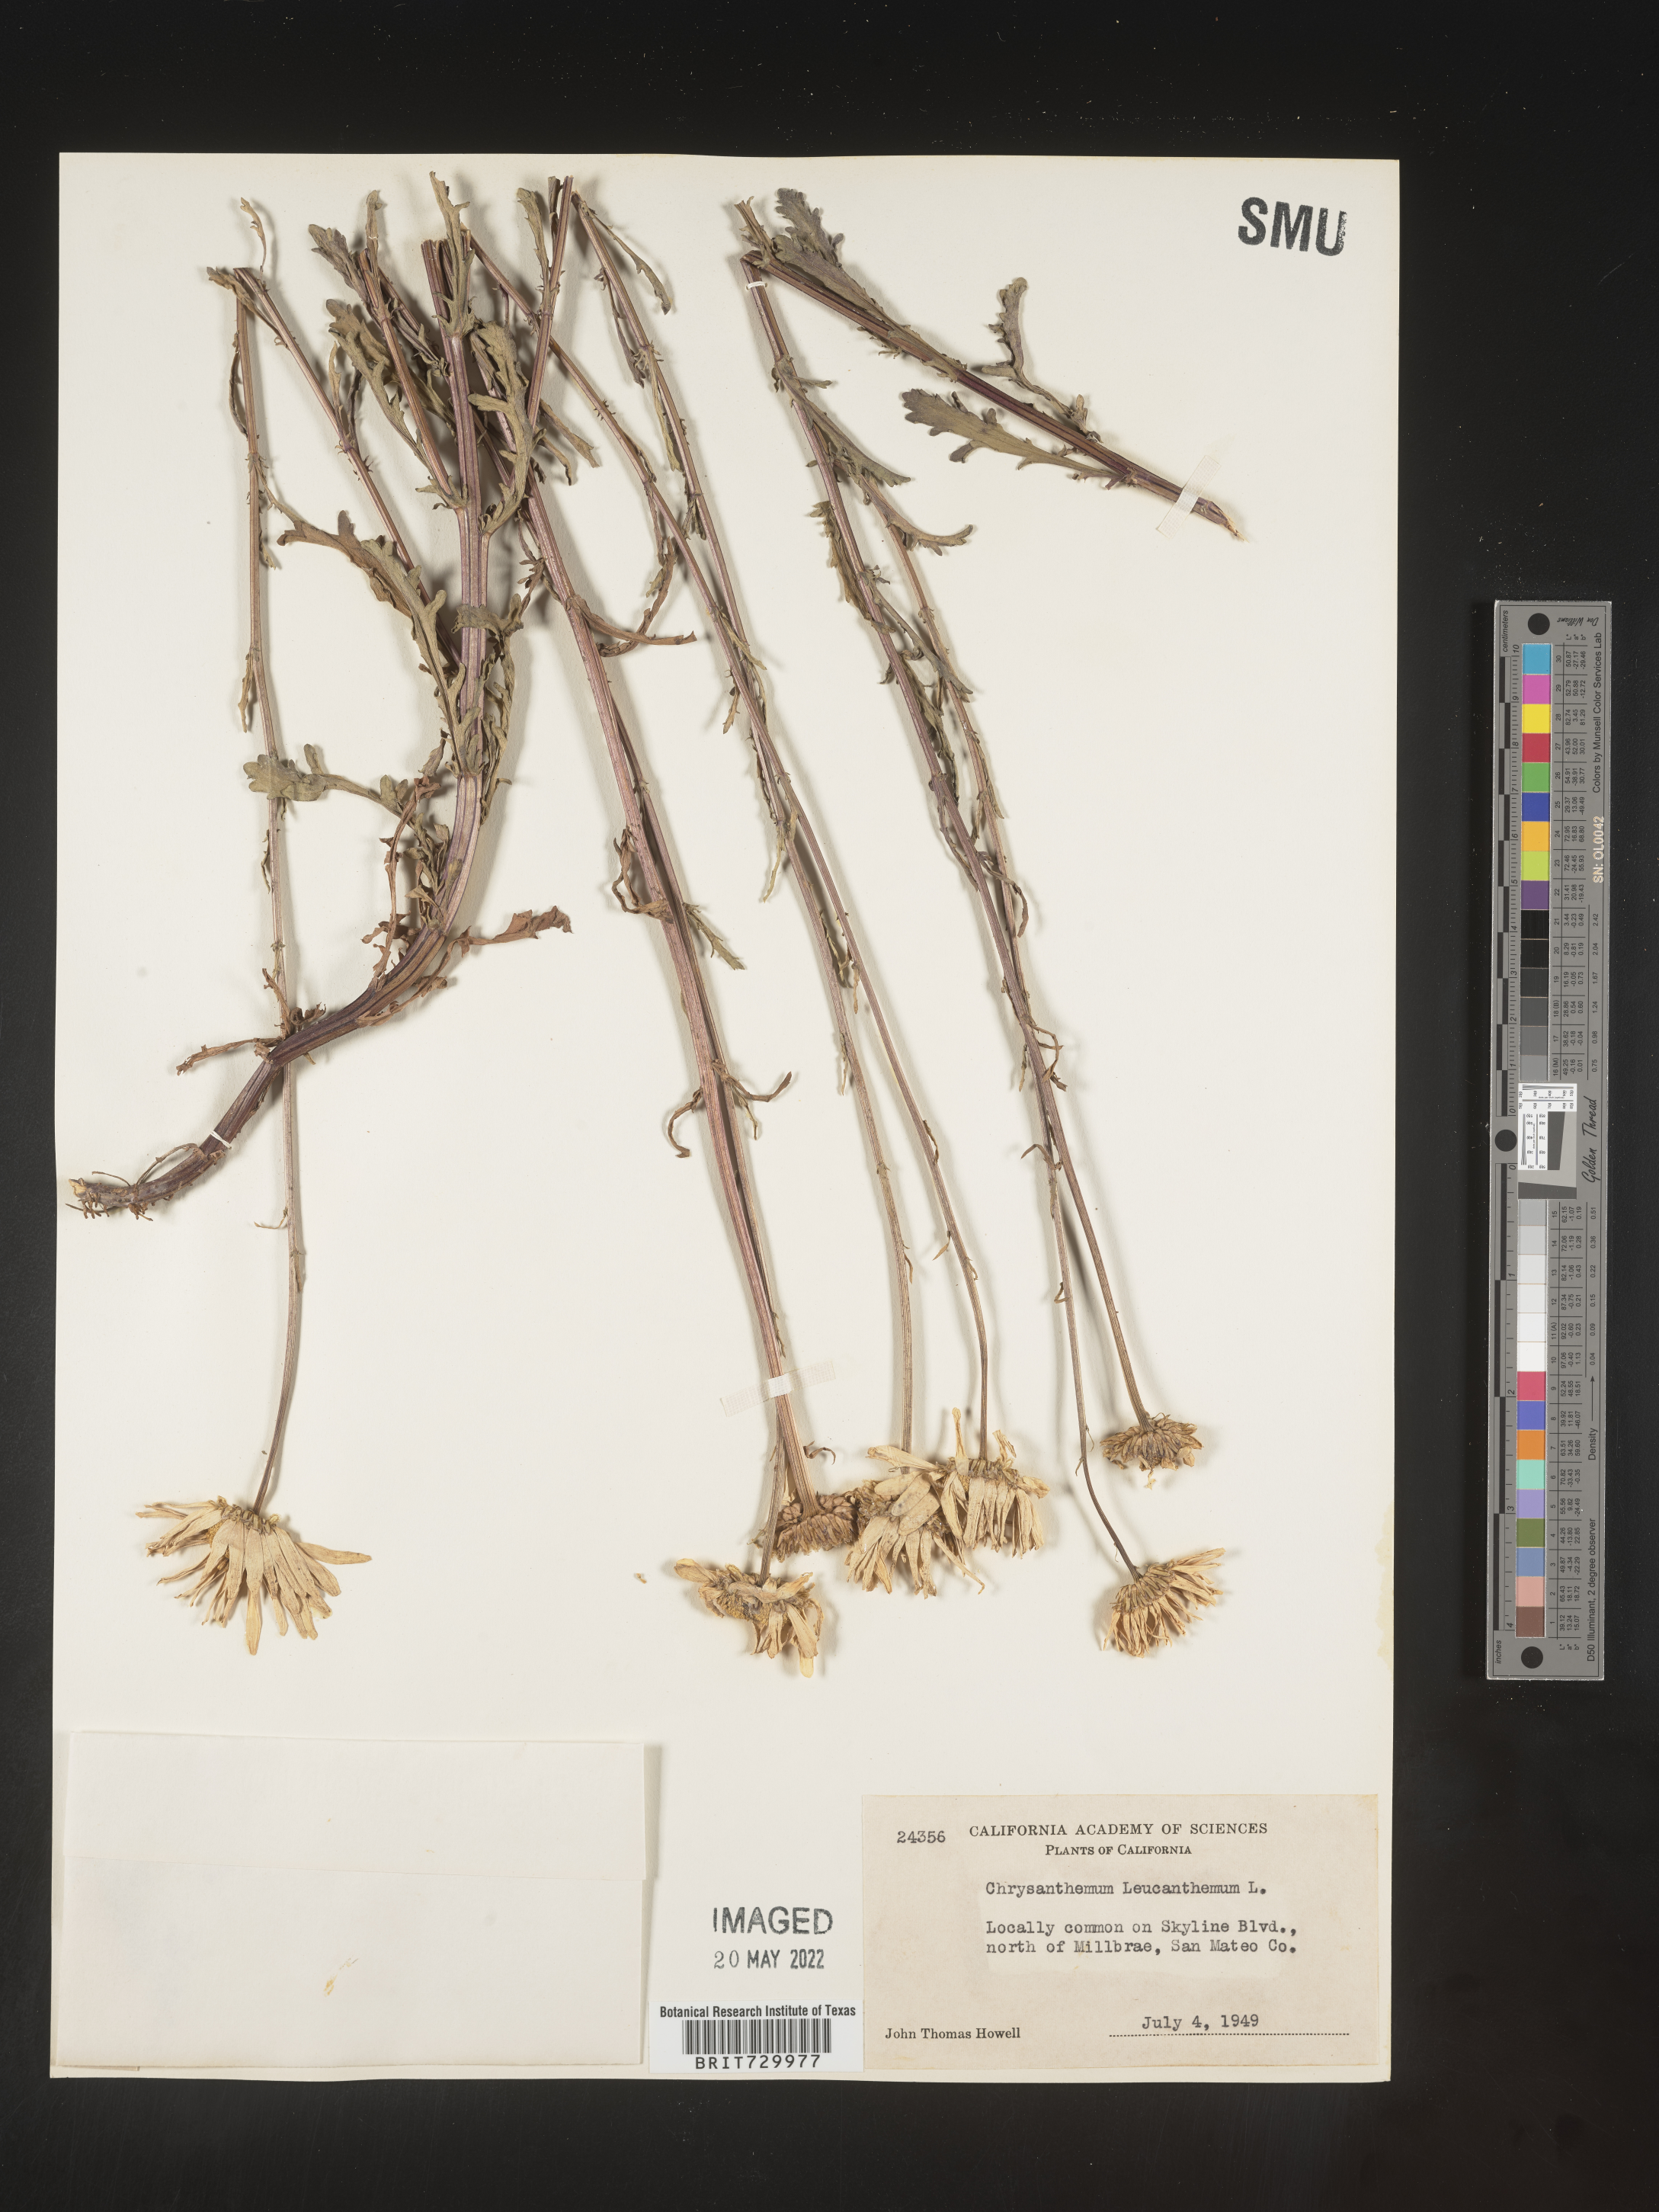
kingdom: Plantae
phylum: Tracheophyta
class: Magnoliopsida
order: Asterales
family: Asteraceae
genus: Leucanthemum
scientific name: Leucanthemum vulgare
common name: Oxeye daisy
